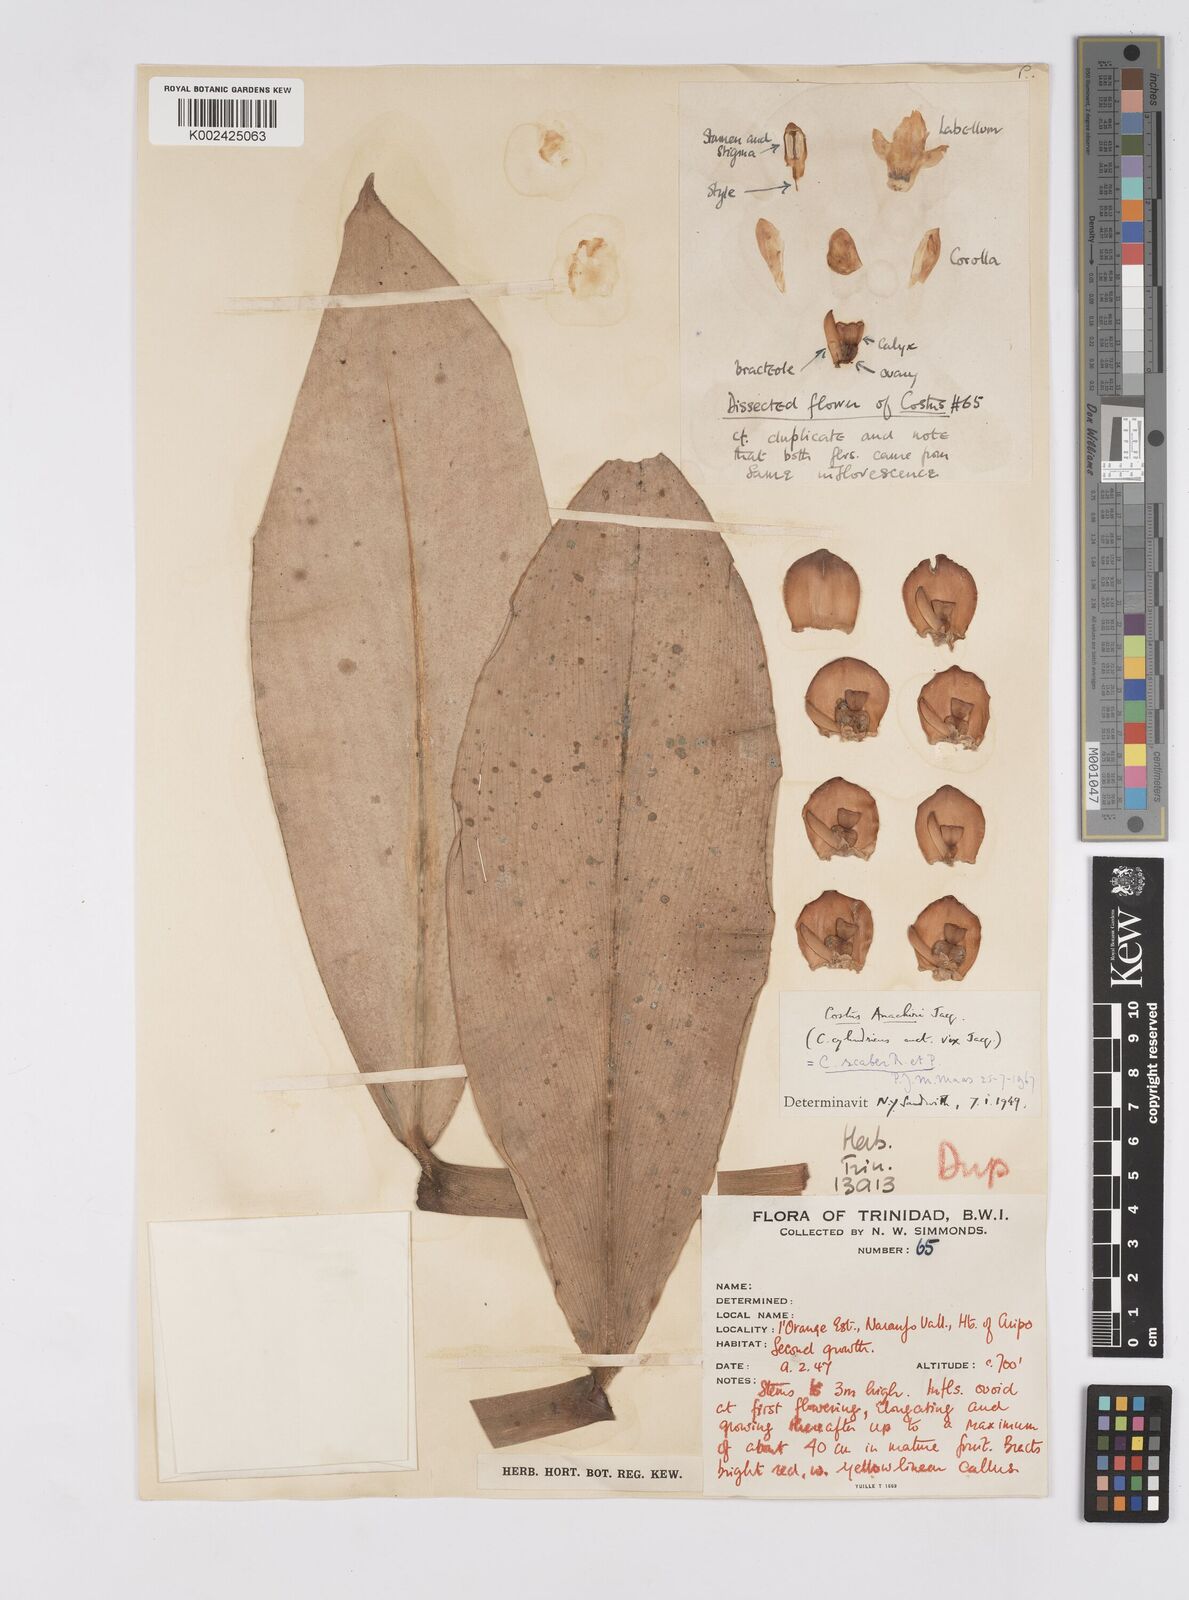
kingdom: Plantae
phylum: Tracheophyta
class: Liliopsida
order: Zingiberales
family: Costaceae
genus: Costus
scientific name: Costus scaber
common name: Spiral head ginger
